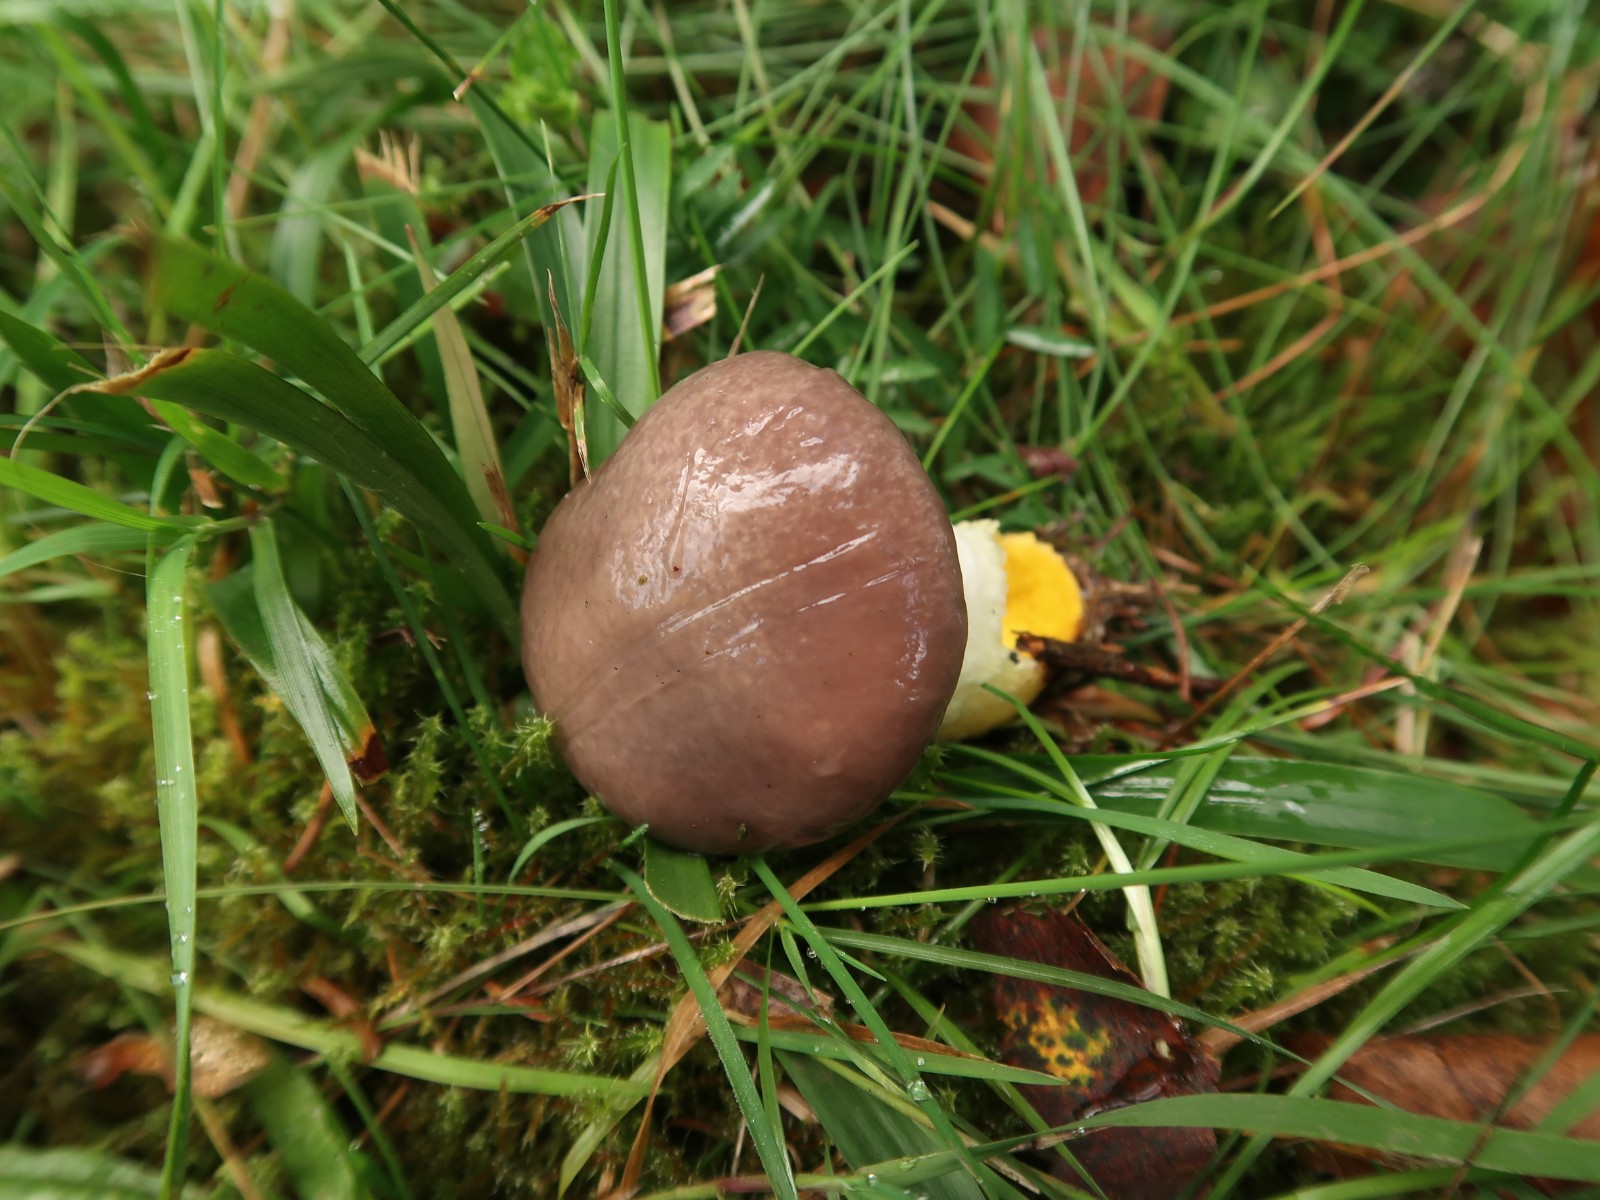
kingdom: Fungi
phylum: Basidiomycota
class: Agaricomycetes
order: Boletales
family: Gomphidiaceae
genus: Gomphidius
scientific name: Gomphidius glutinosus
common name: grå slimslør
